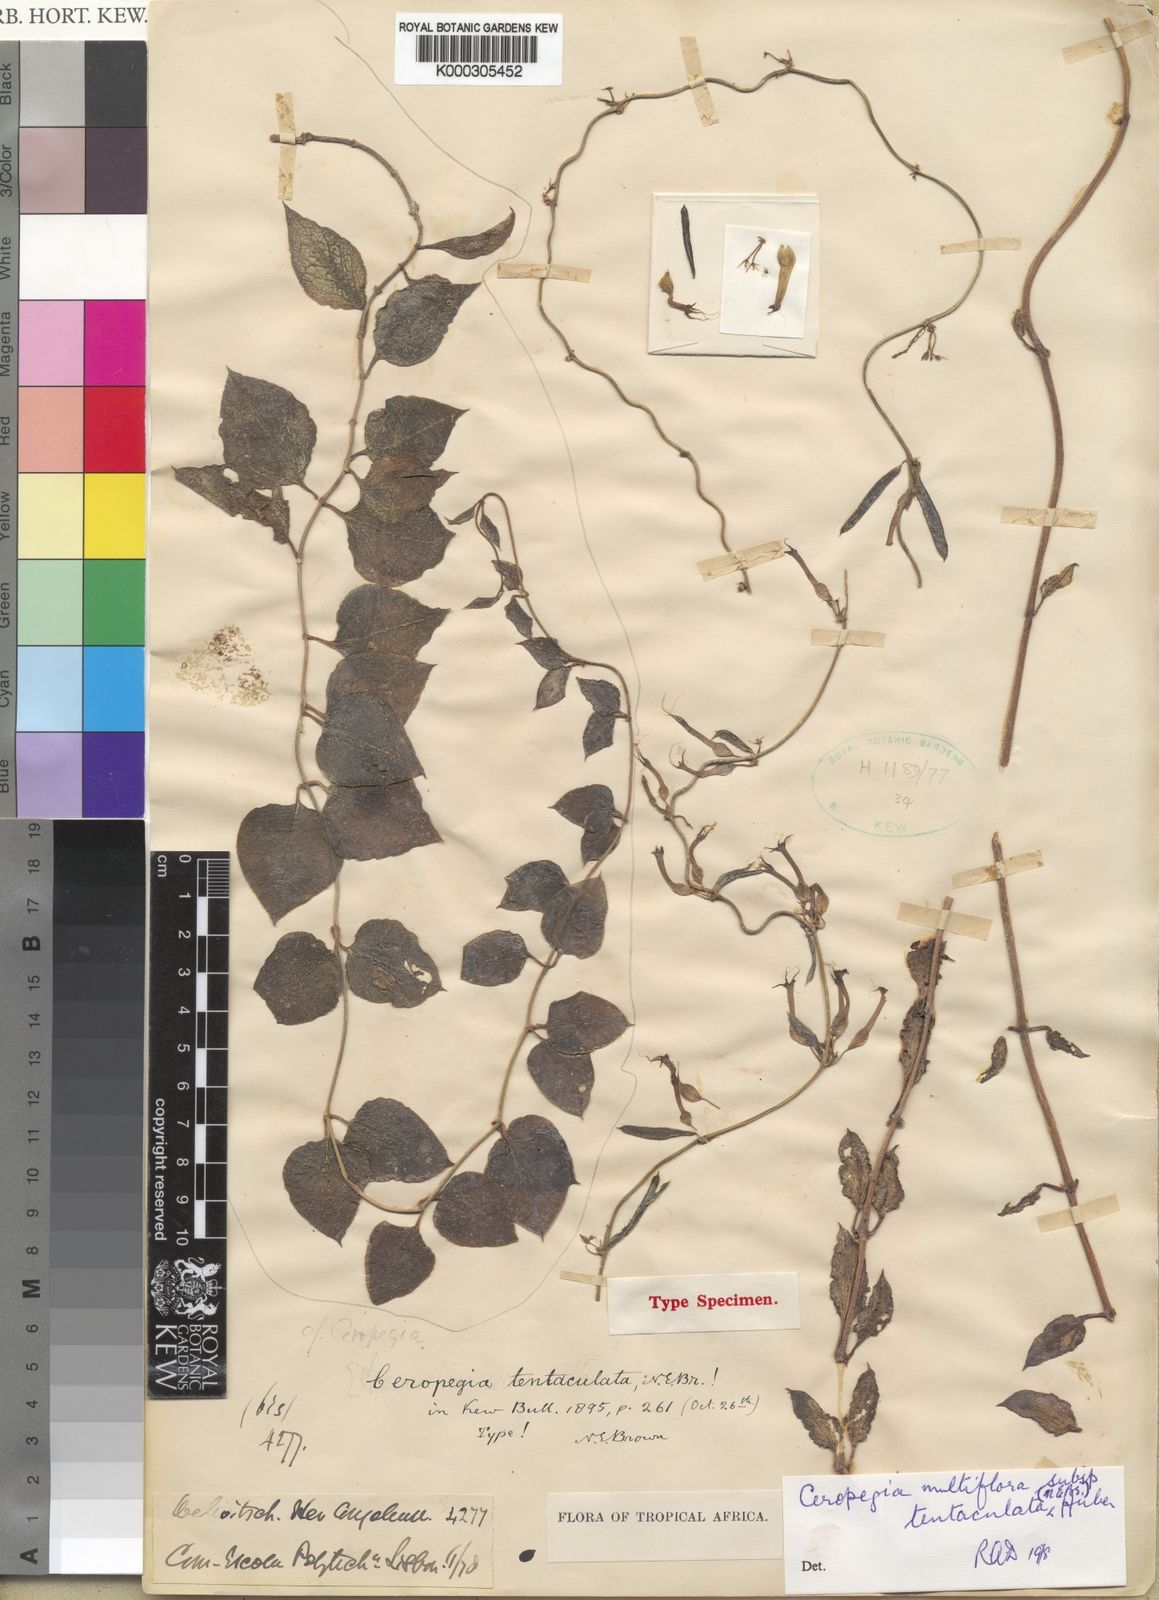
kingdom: Plantae
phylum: Tracheophyta
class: Magnoliopsida
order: Gentianales
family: Apocynaceae
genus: Ceropegia
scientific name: Ceropegia multiflora
